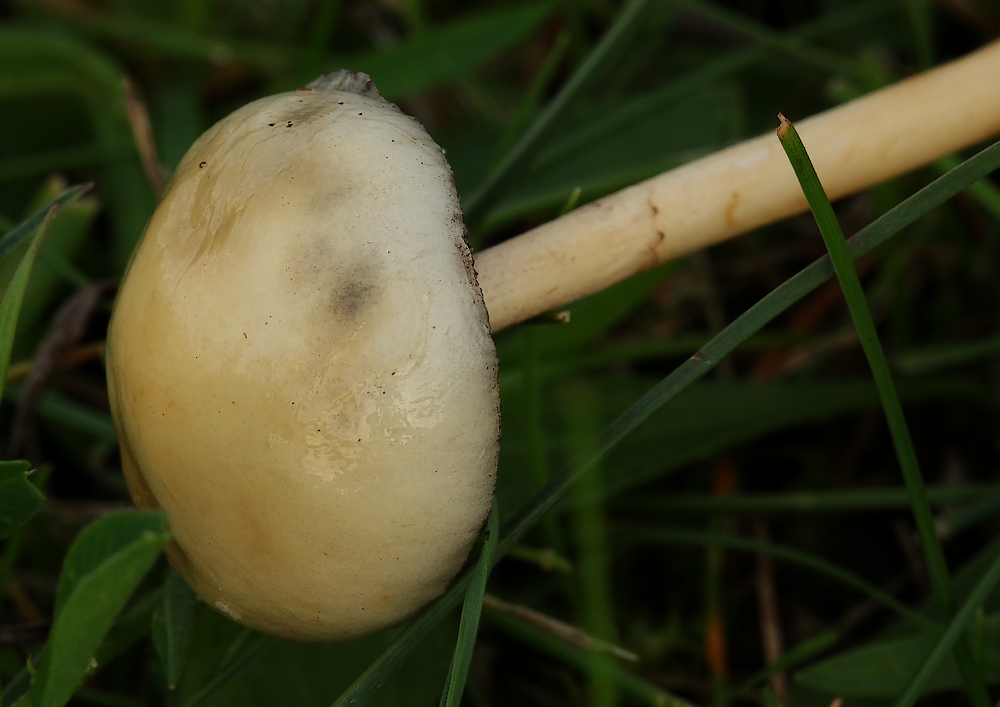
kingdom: Fungi
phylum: Basidiomycota
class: Agaricomycetes
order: Agaricales
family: Strophariaceae
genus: Protostropharia
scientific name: Protostropharia
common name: bredblad
